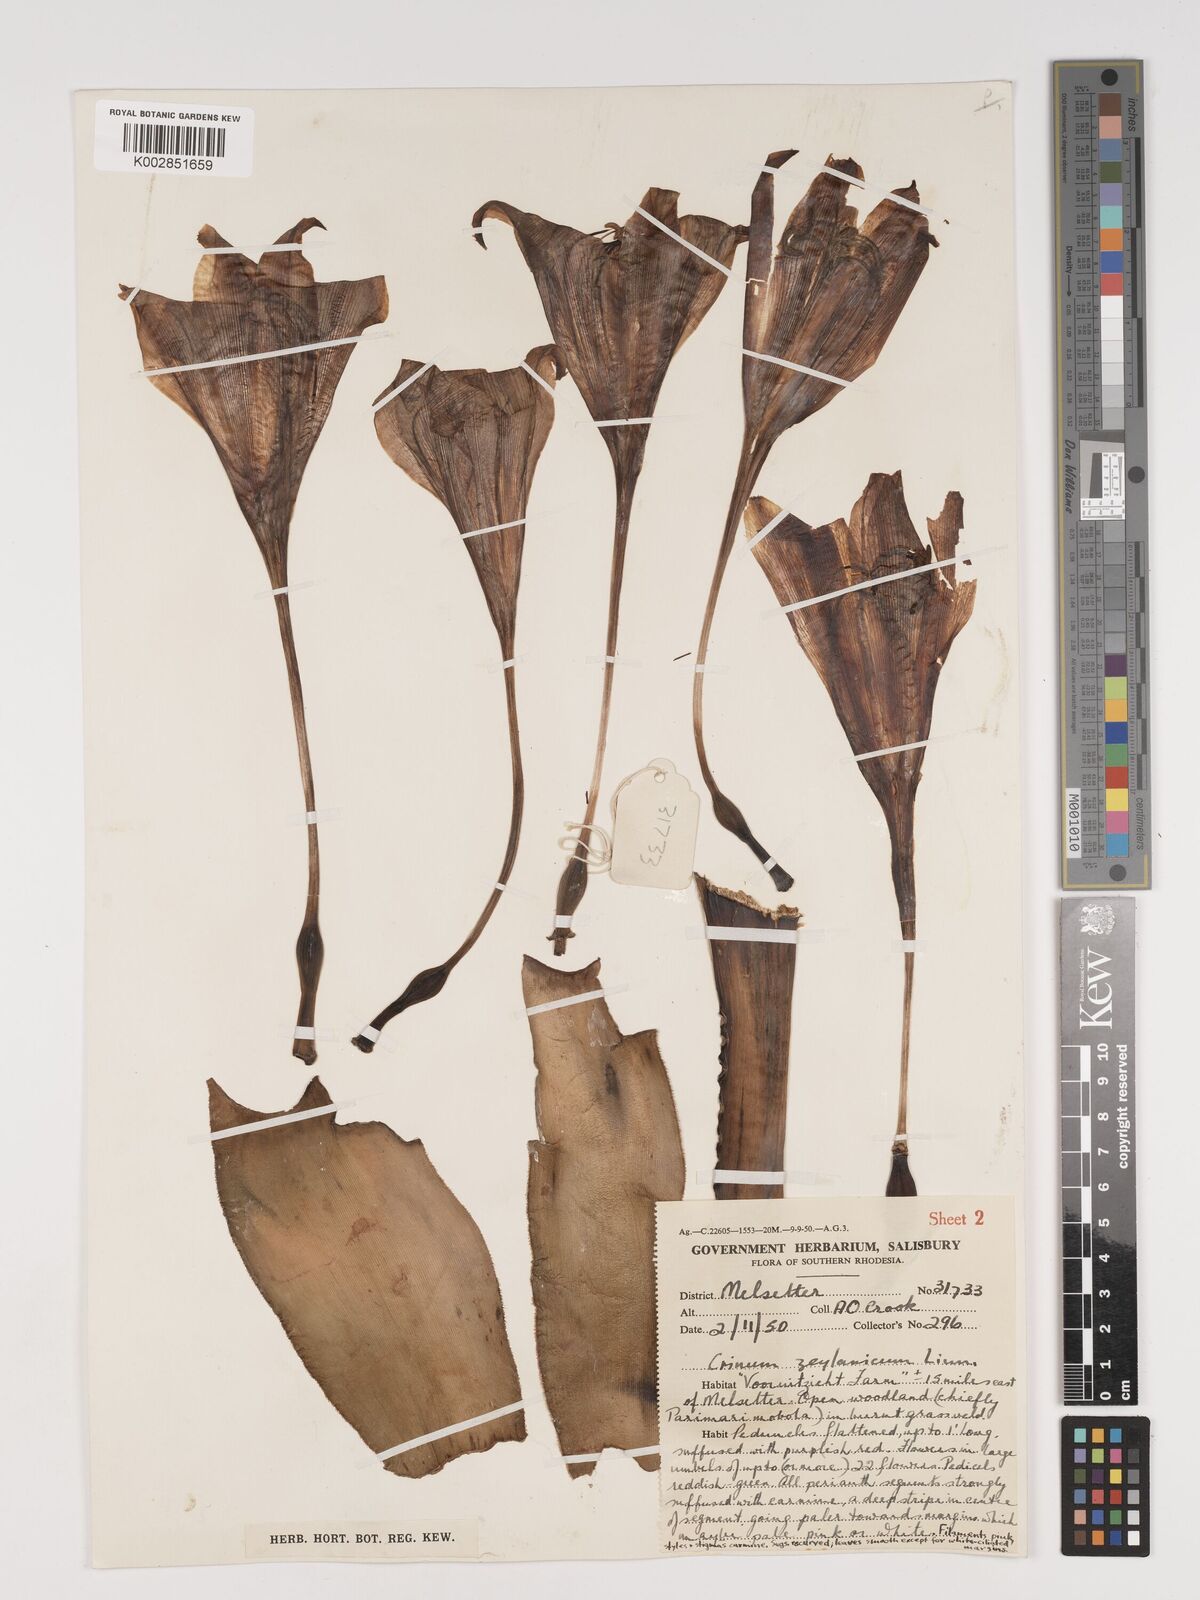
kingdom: Plantae
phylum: Tracheophyta
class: Liliopsida
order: Asparagales
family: Amaryllidaceae
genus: Crinum
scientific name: Crinum graminicola
